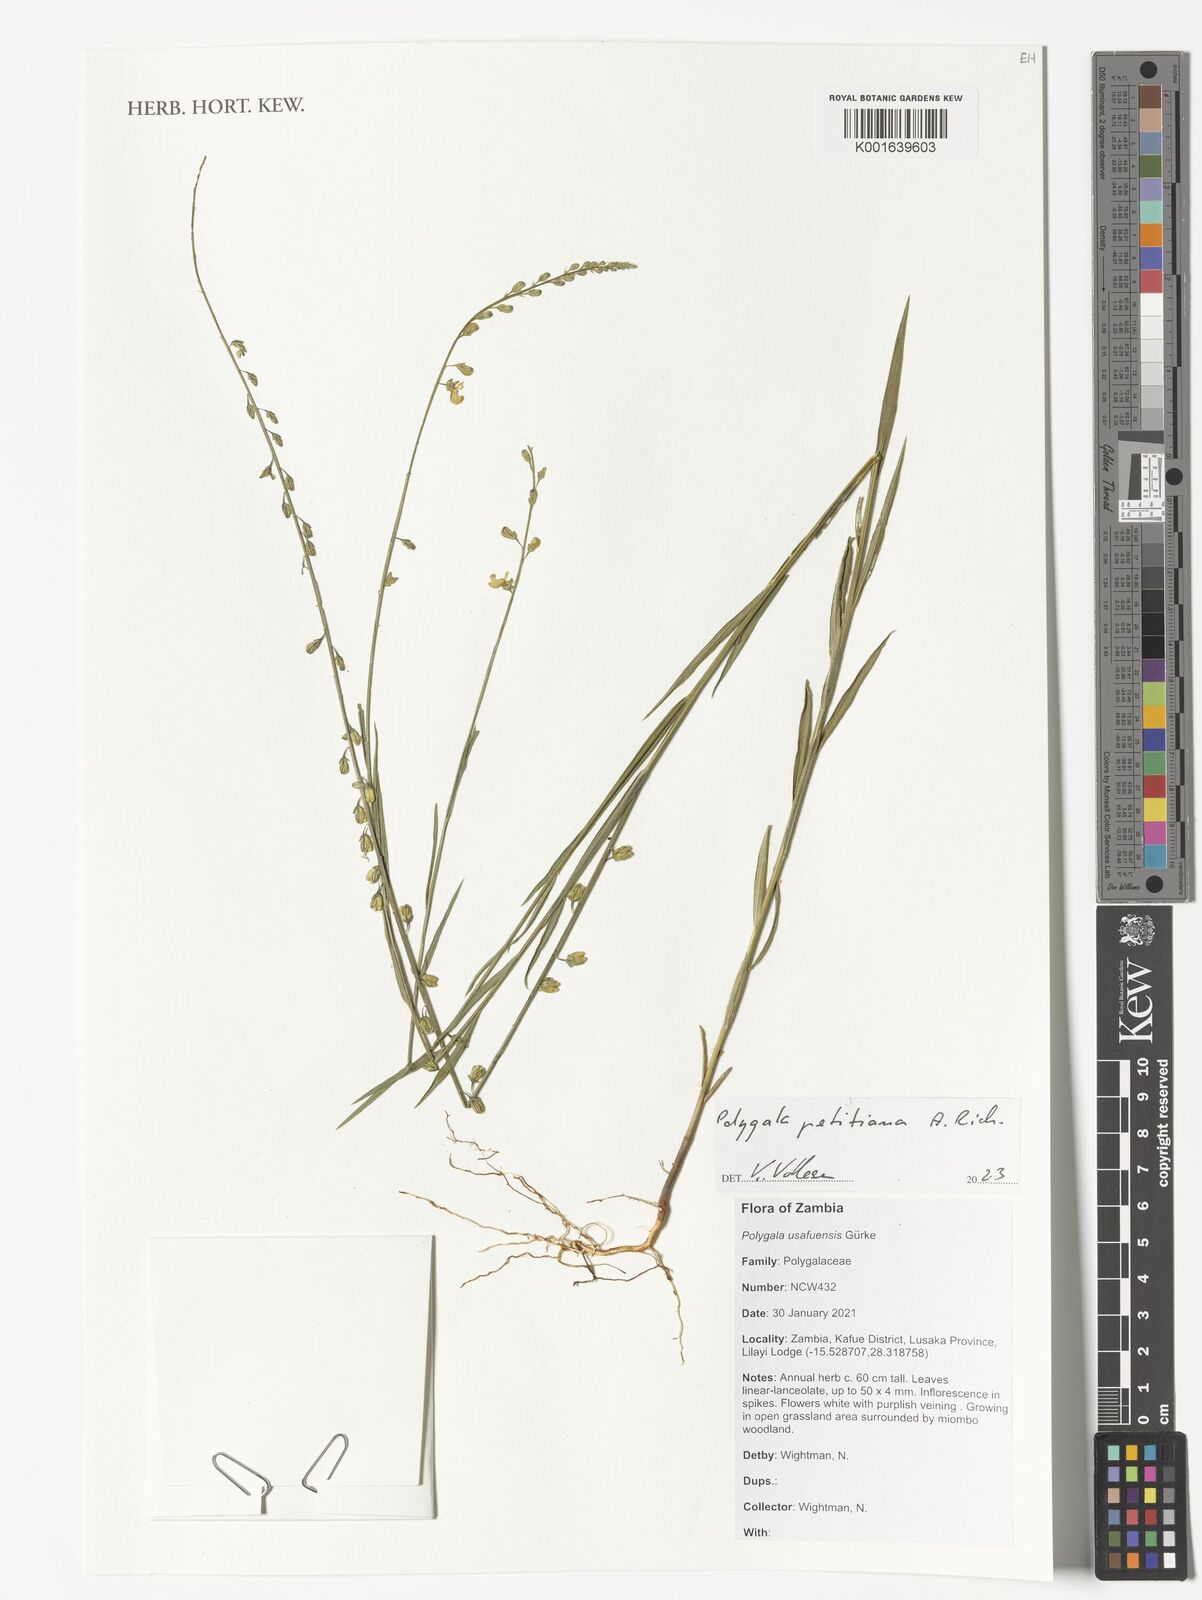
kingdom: Plantae
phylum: Tracheophyta
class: Magnoliopsida
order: Fabales
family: Polygalaceae
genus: Polygala
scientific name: Polygala petitiana
